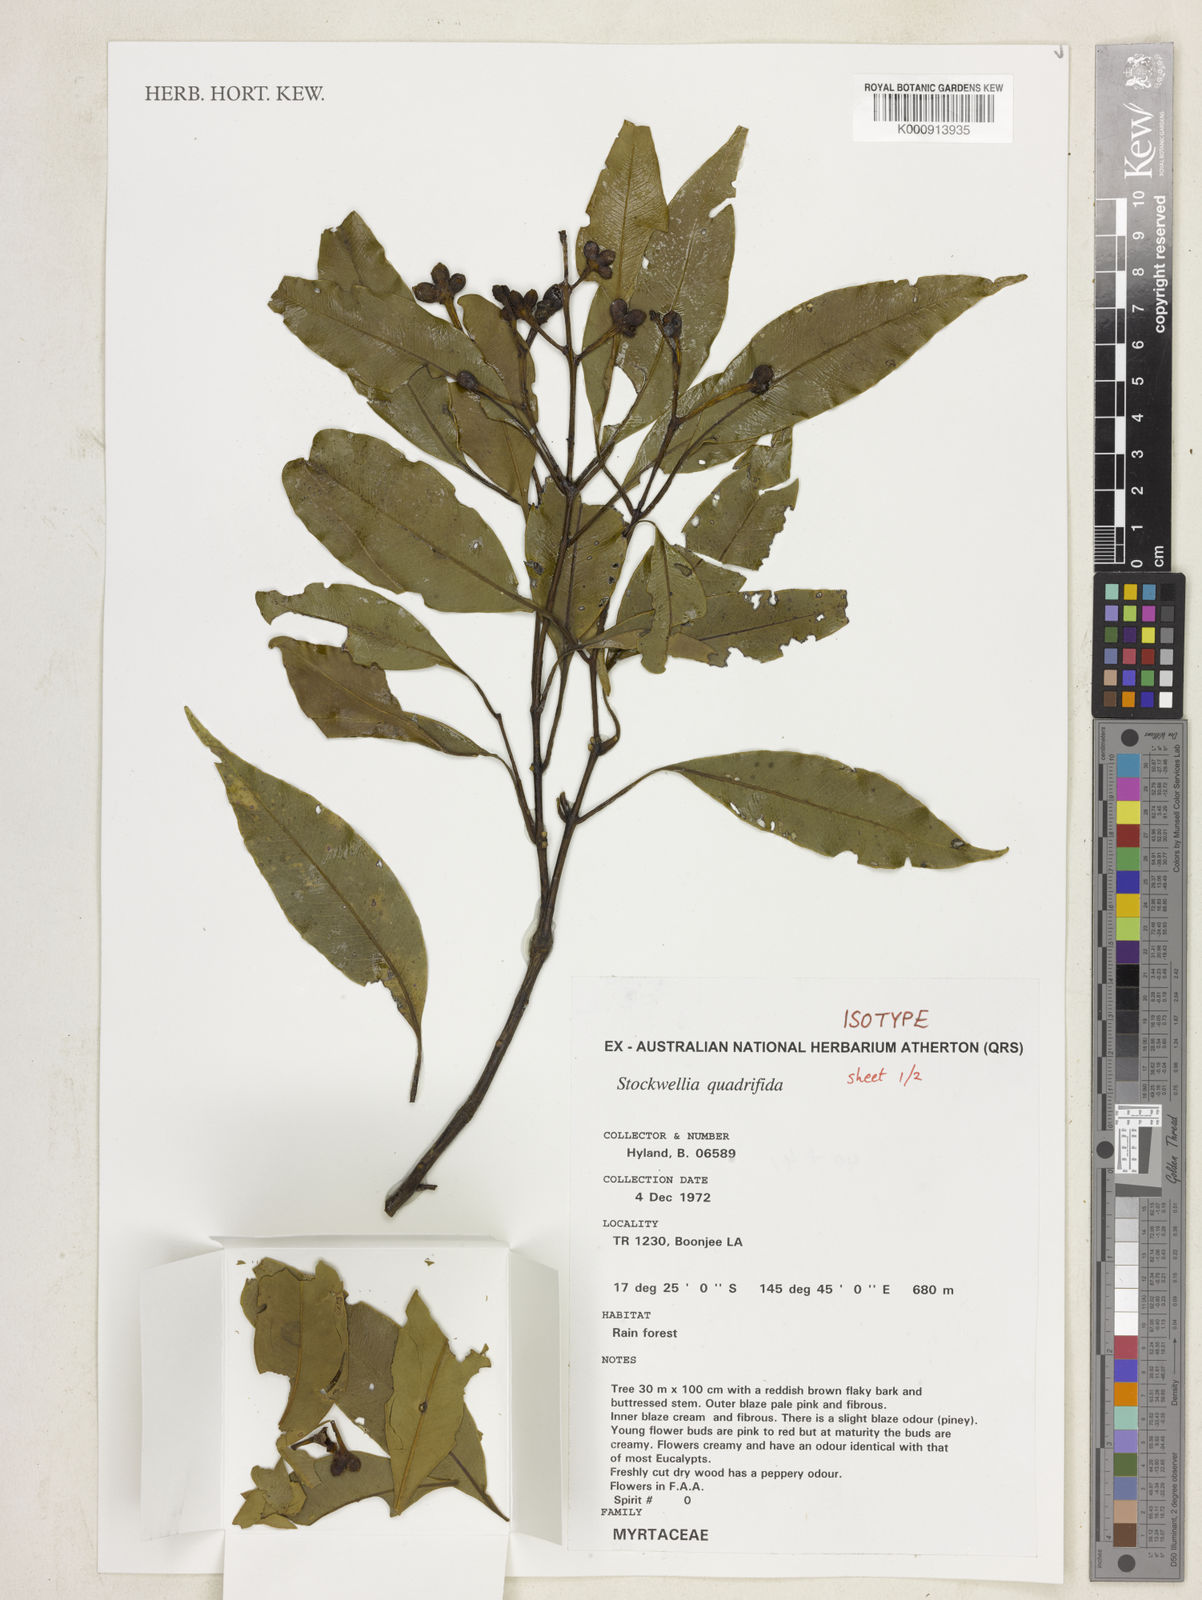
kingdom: Plantae
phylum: Tracheophyta
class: Magnoliopsida
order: Myrtales
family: Myrtaceae
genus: Stockwellia
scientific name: Stockwellia quadrifida
